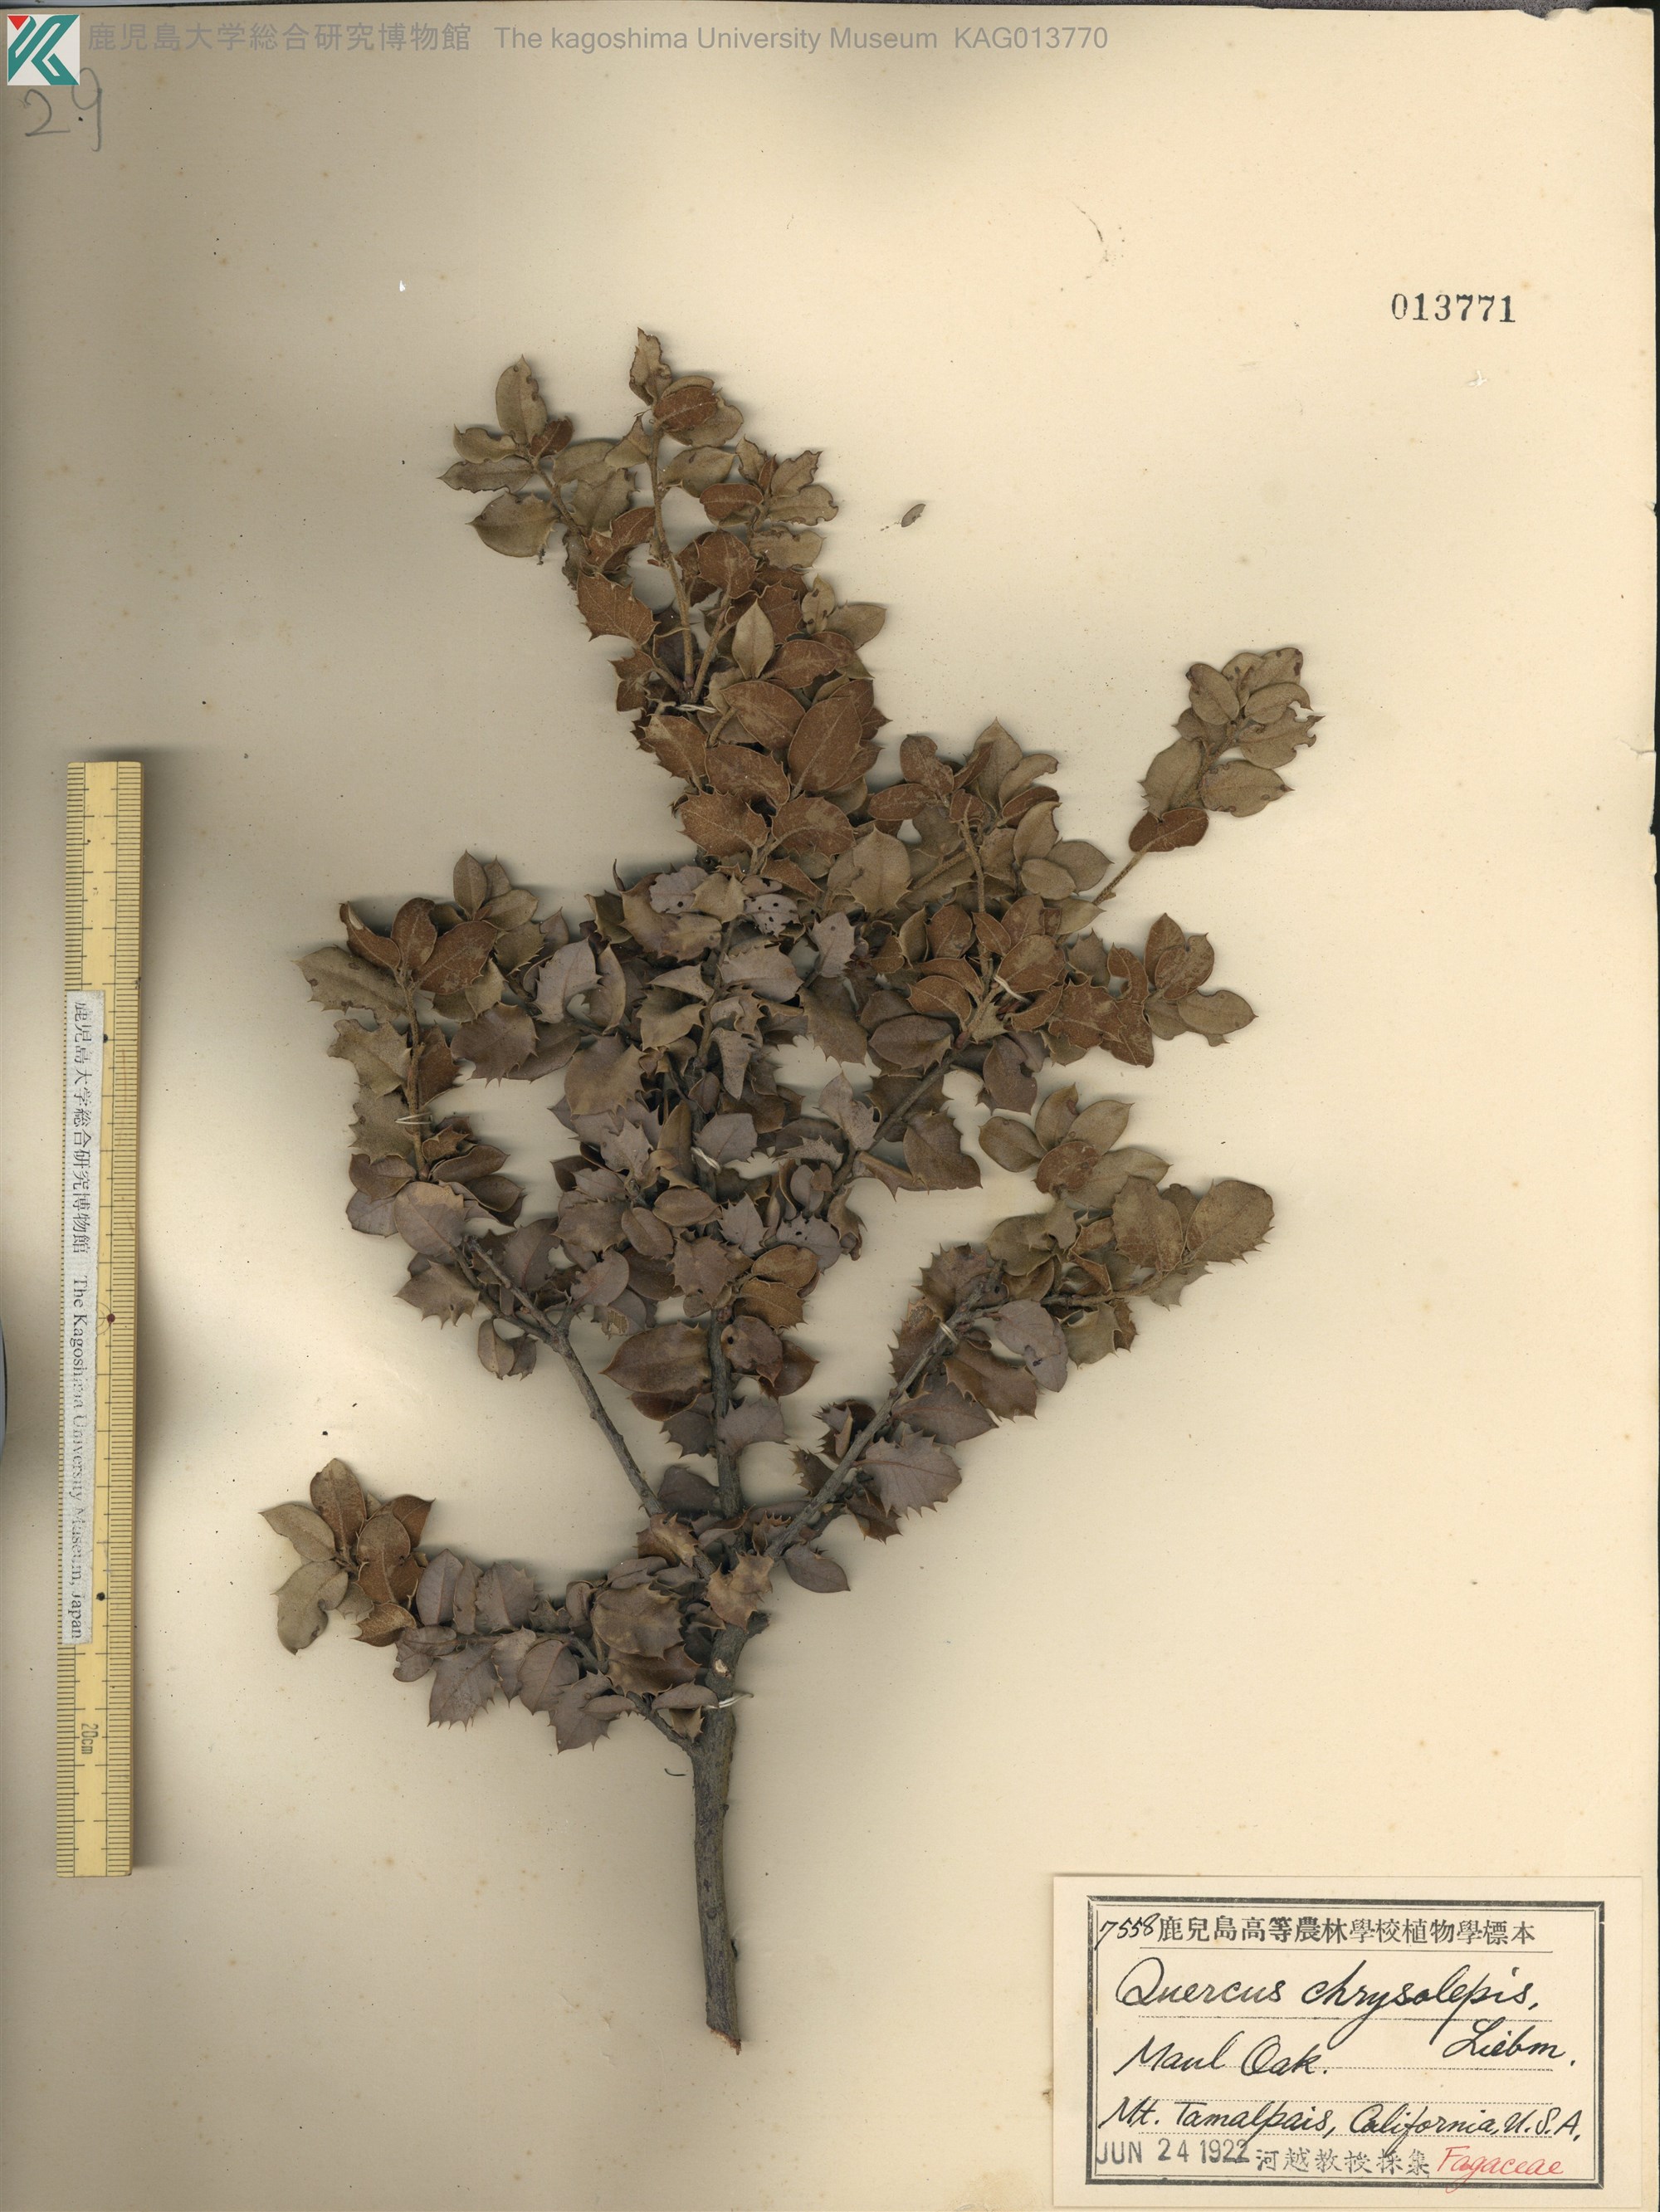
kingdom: Plantae
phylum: Tracheophyta
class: Magnoliopsida
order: Fagales
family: Fagaceae
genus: Quercus
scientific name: Quercus cerris
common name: Turkey oak
